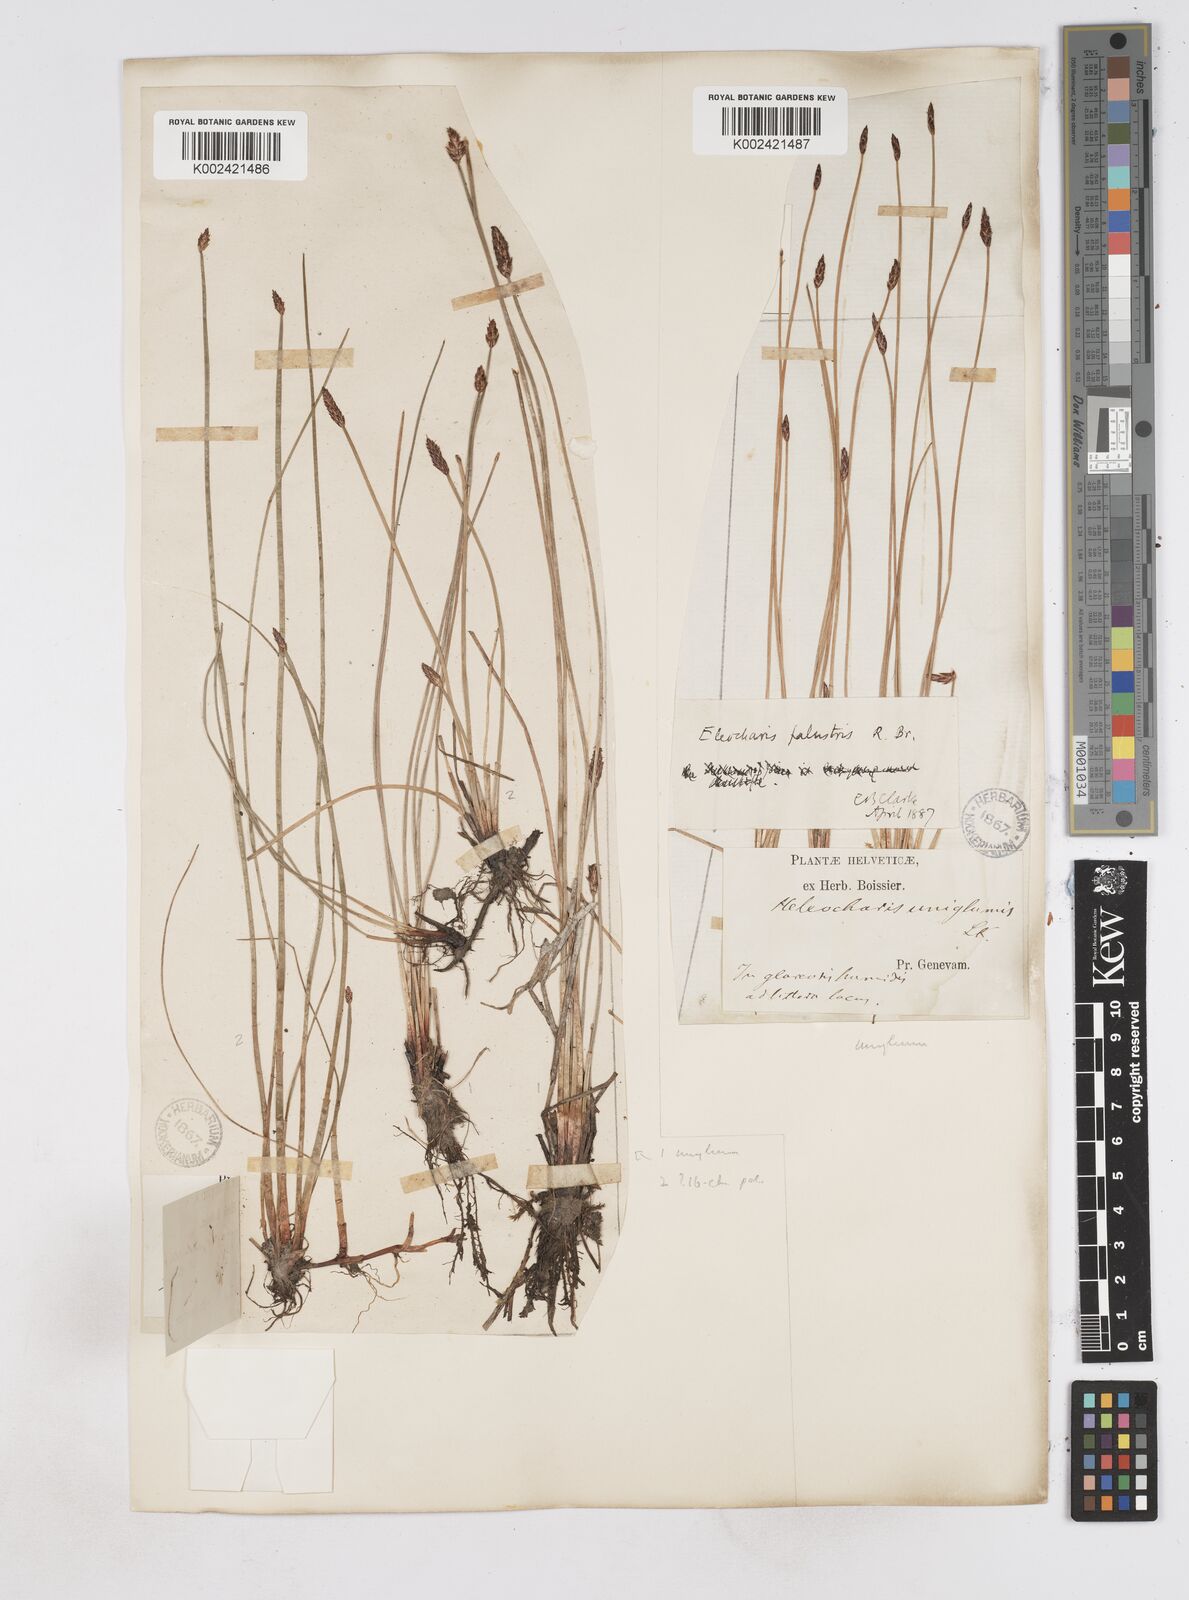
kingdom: Plantae
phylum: Tracheophyta
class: Liliopsida
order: Poales
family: Cyperaceae
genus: Eleocharis
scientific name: Eleocharis uniglumis
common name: Slender spike-rush
